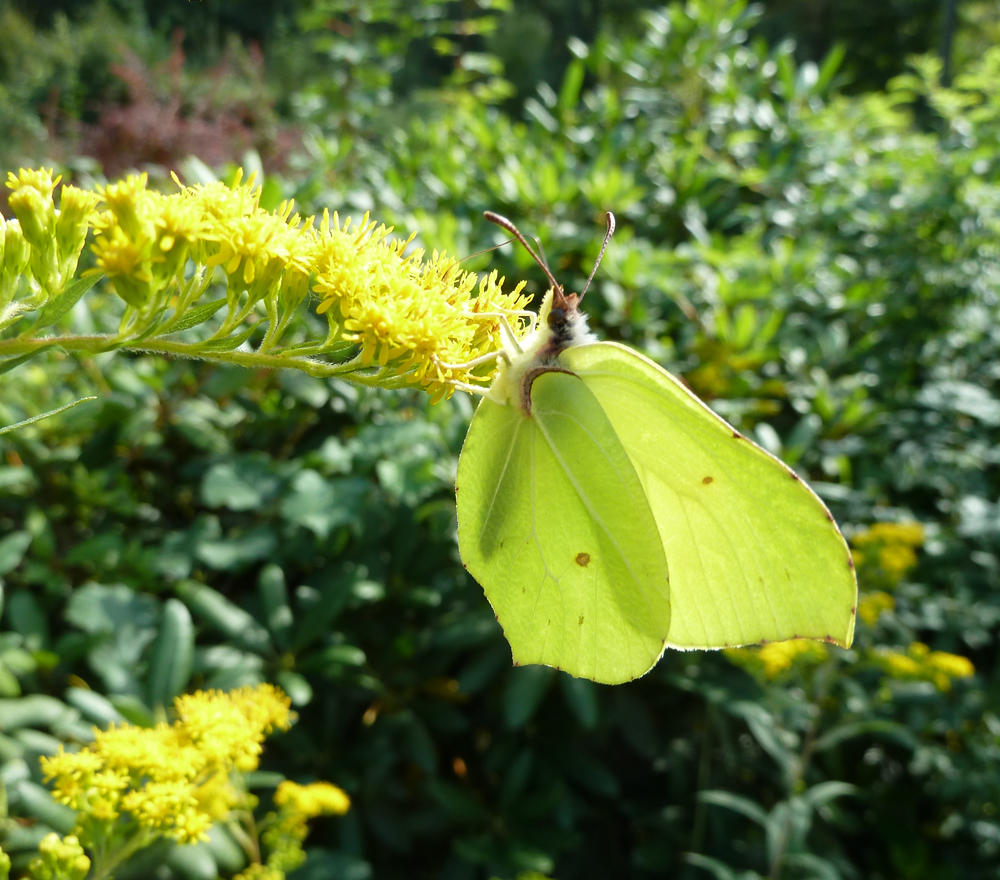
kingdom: Animalia
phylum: Arthropoda
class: Insecta
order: Lepidoptera
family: Pieridae
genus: Gonepteryx
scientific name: Gonepteryx rhamni
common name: Brimstone
